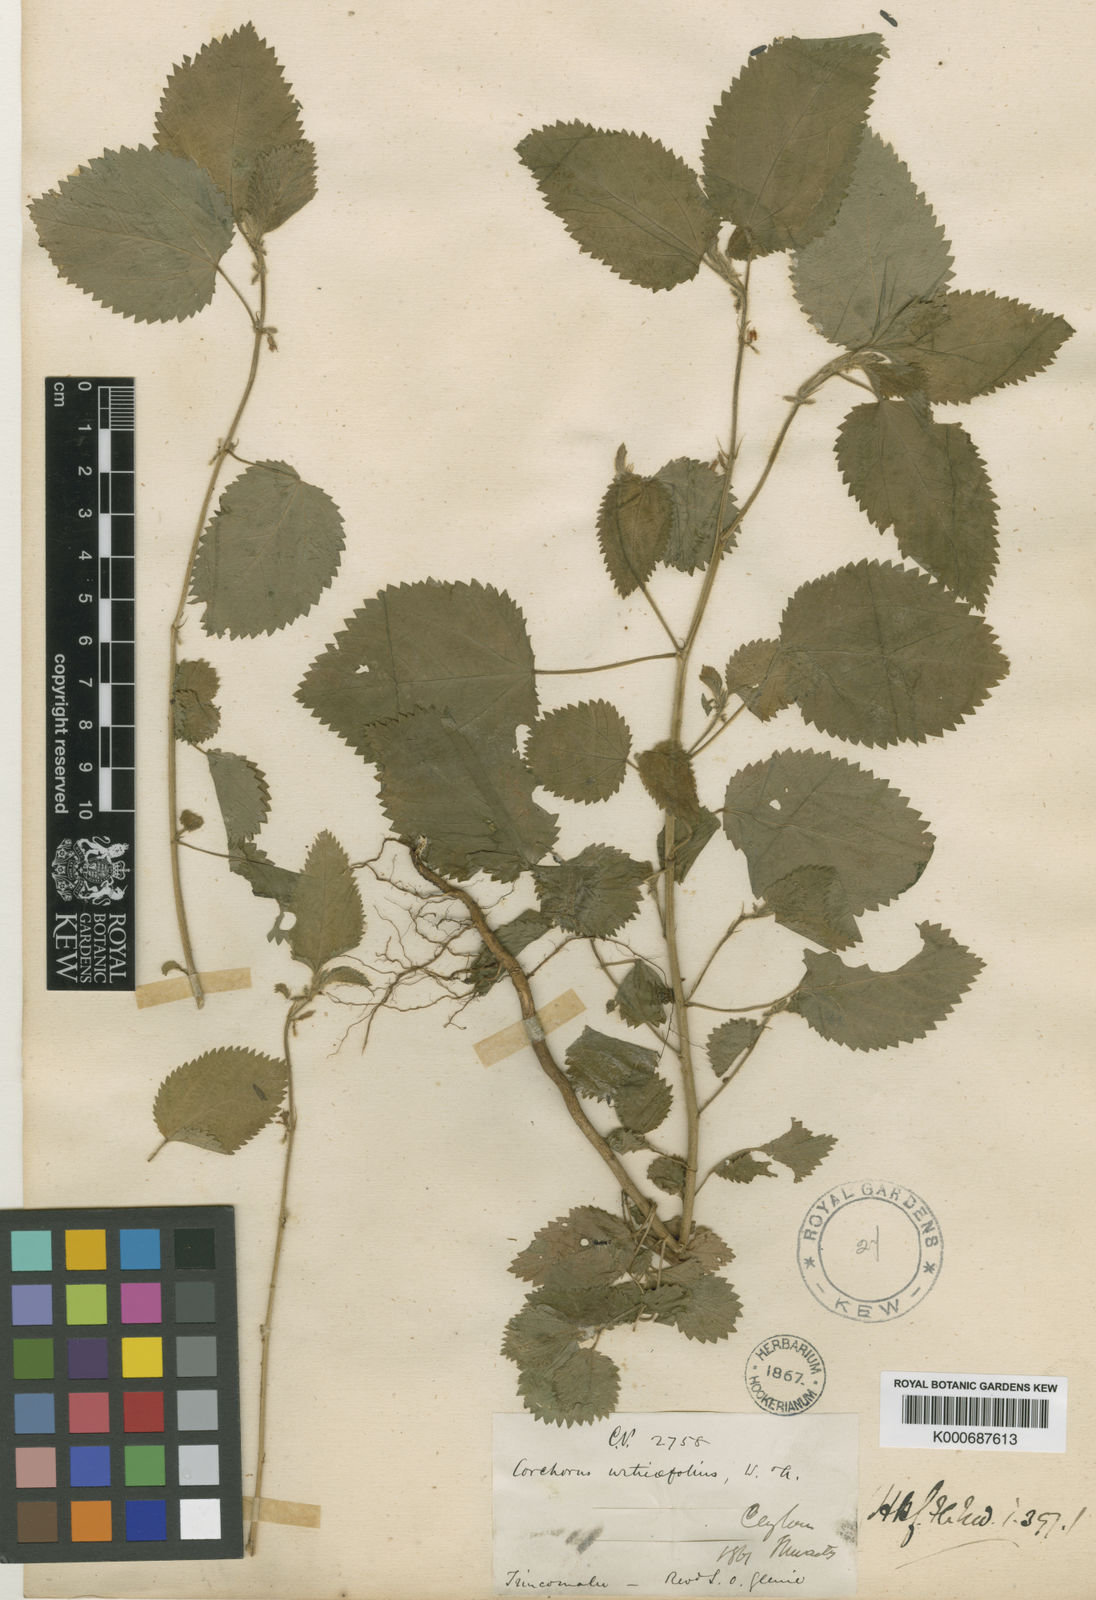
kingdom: Plantae
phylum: Tracheophyta
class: Magnoliopsida
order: Malvales
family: Malvaceae
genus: Corchorus
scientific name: Corchorus urticifolius
